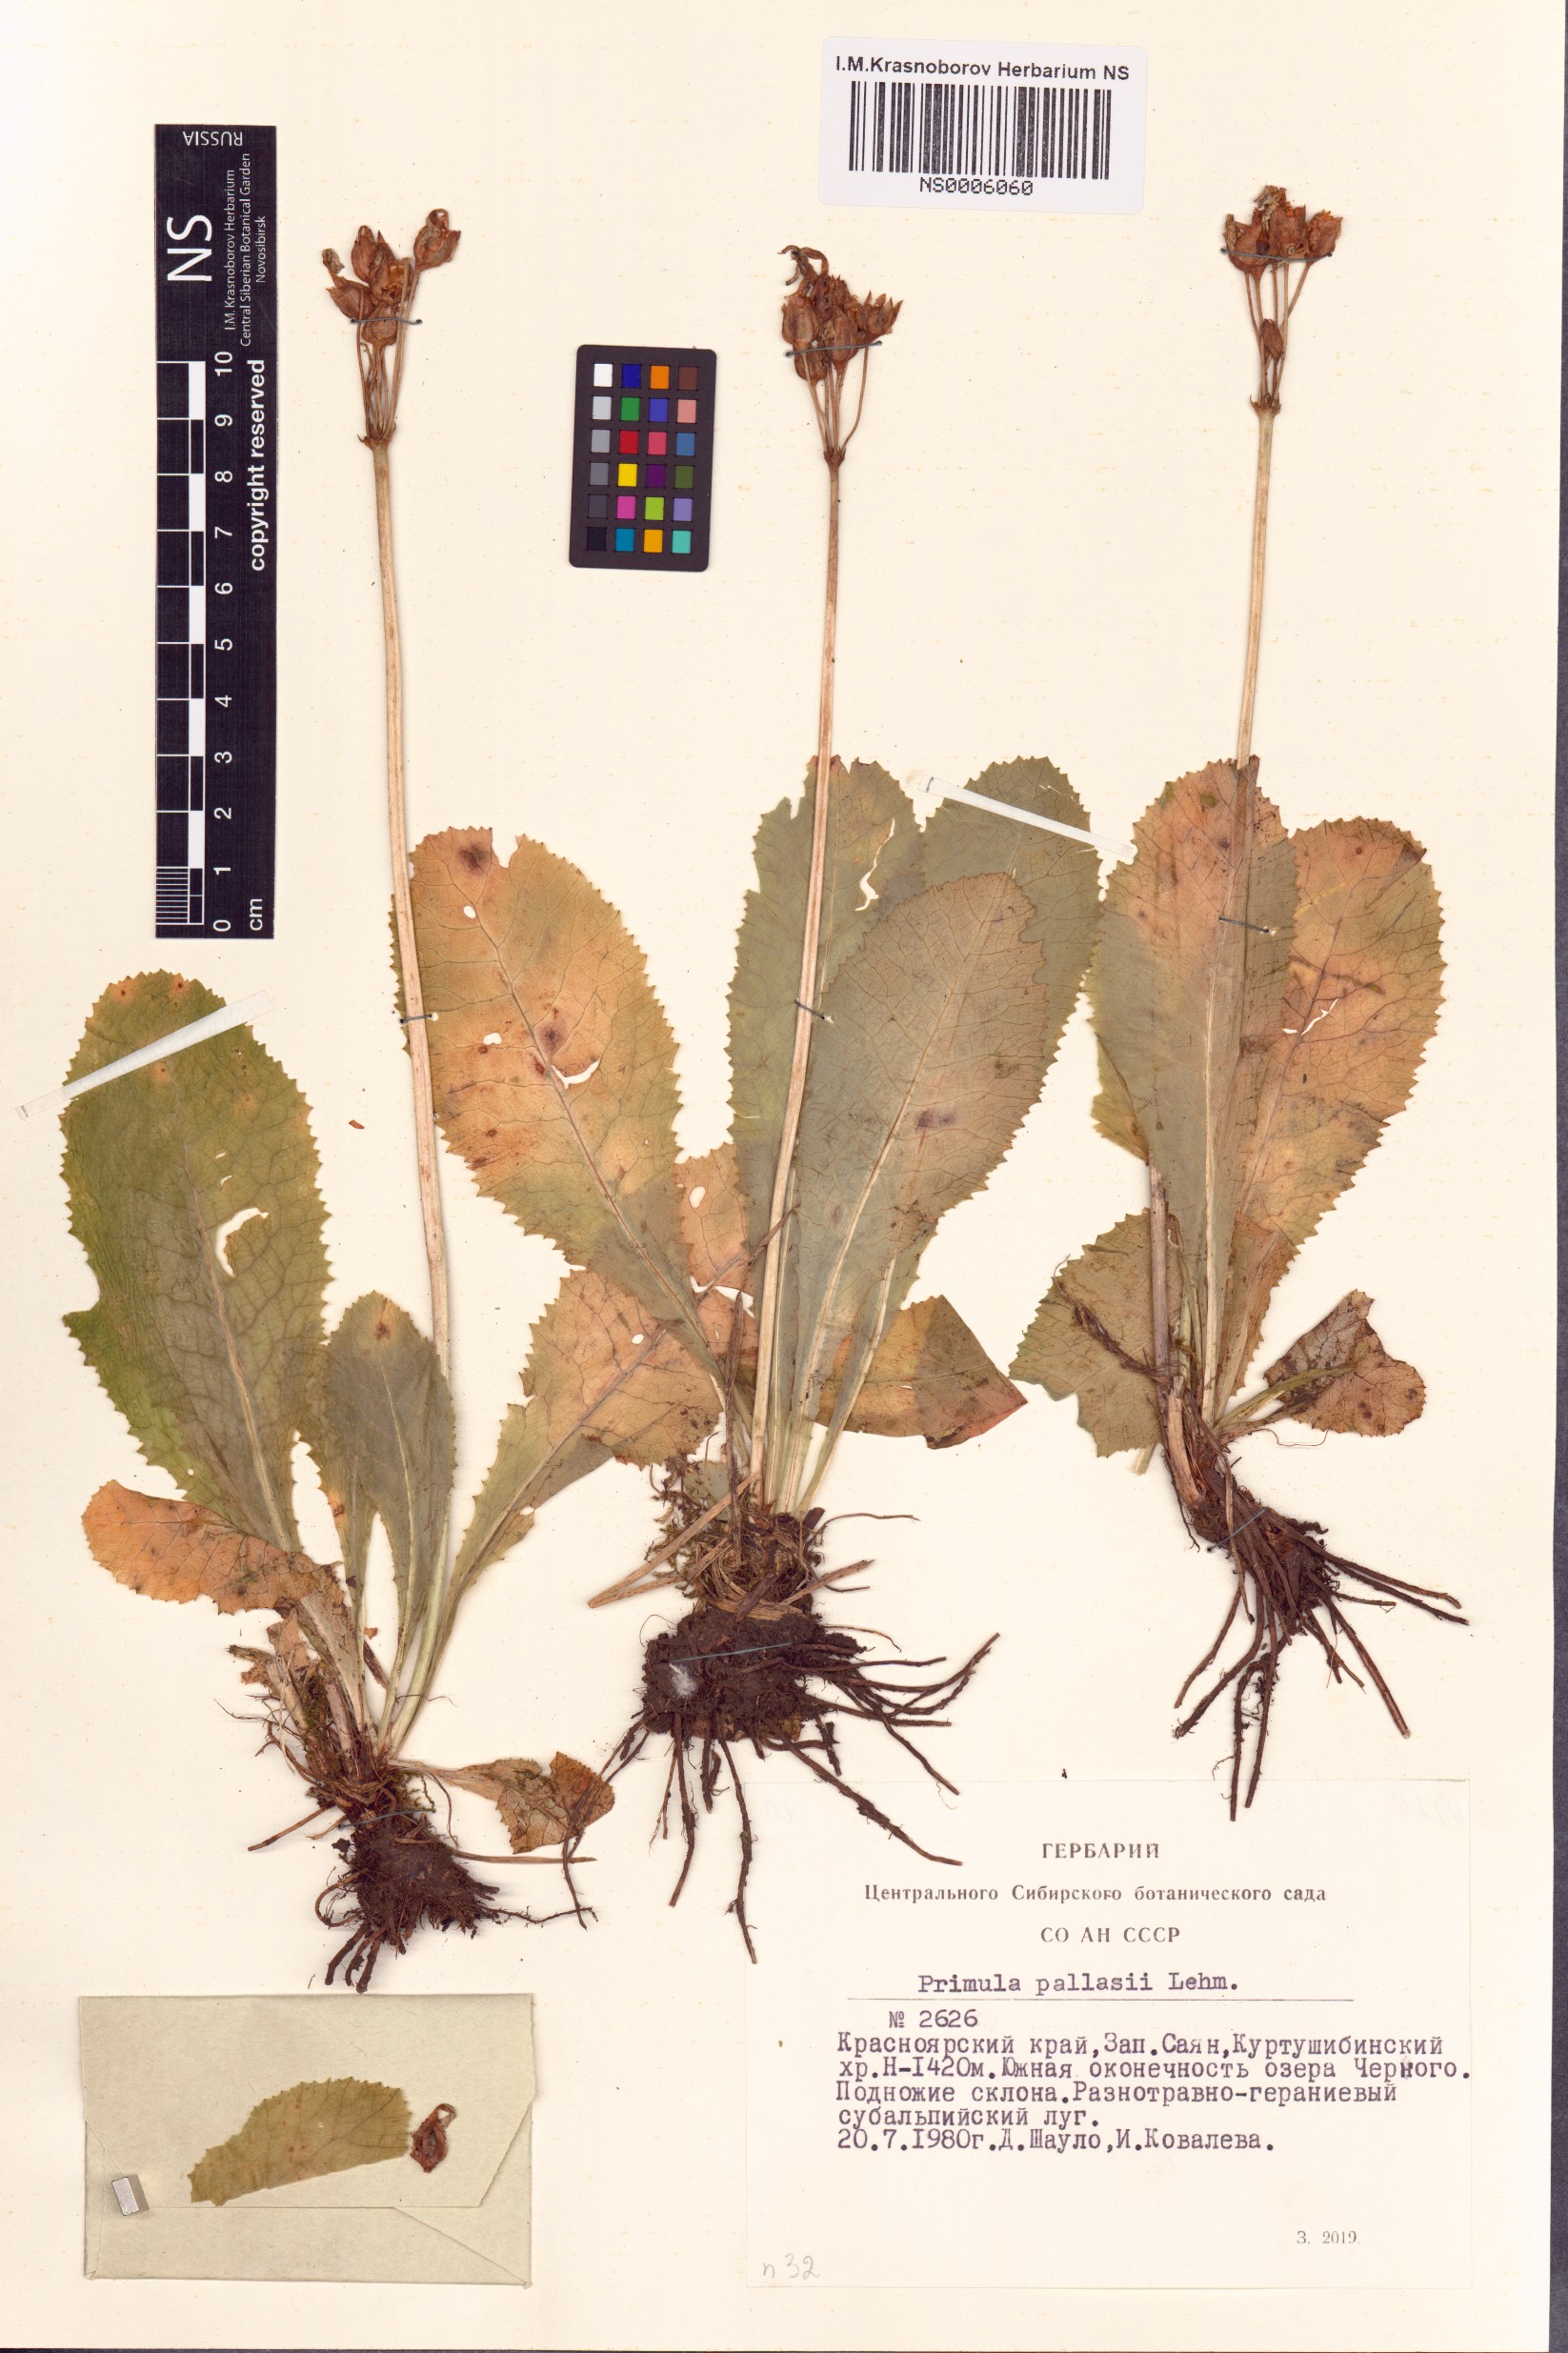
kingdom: Plantae
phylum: Tracheophyta
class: Magnoliopsida
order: Ericales
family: Primulaceae
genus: Primula
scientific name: Primula elatior
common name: Oxlip
